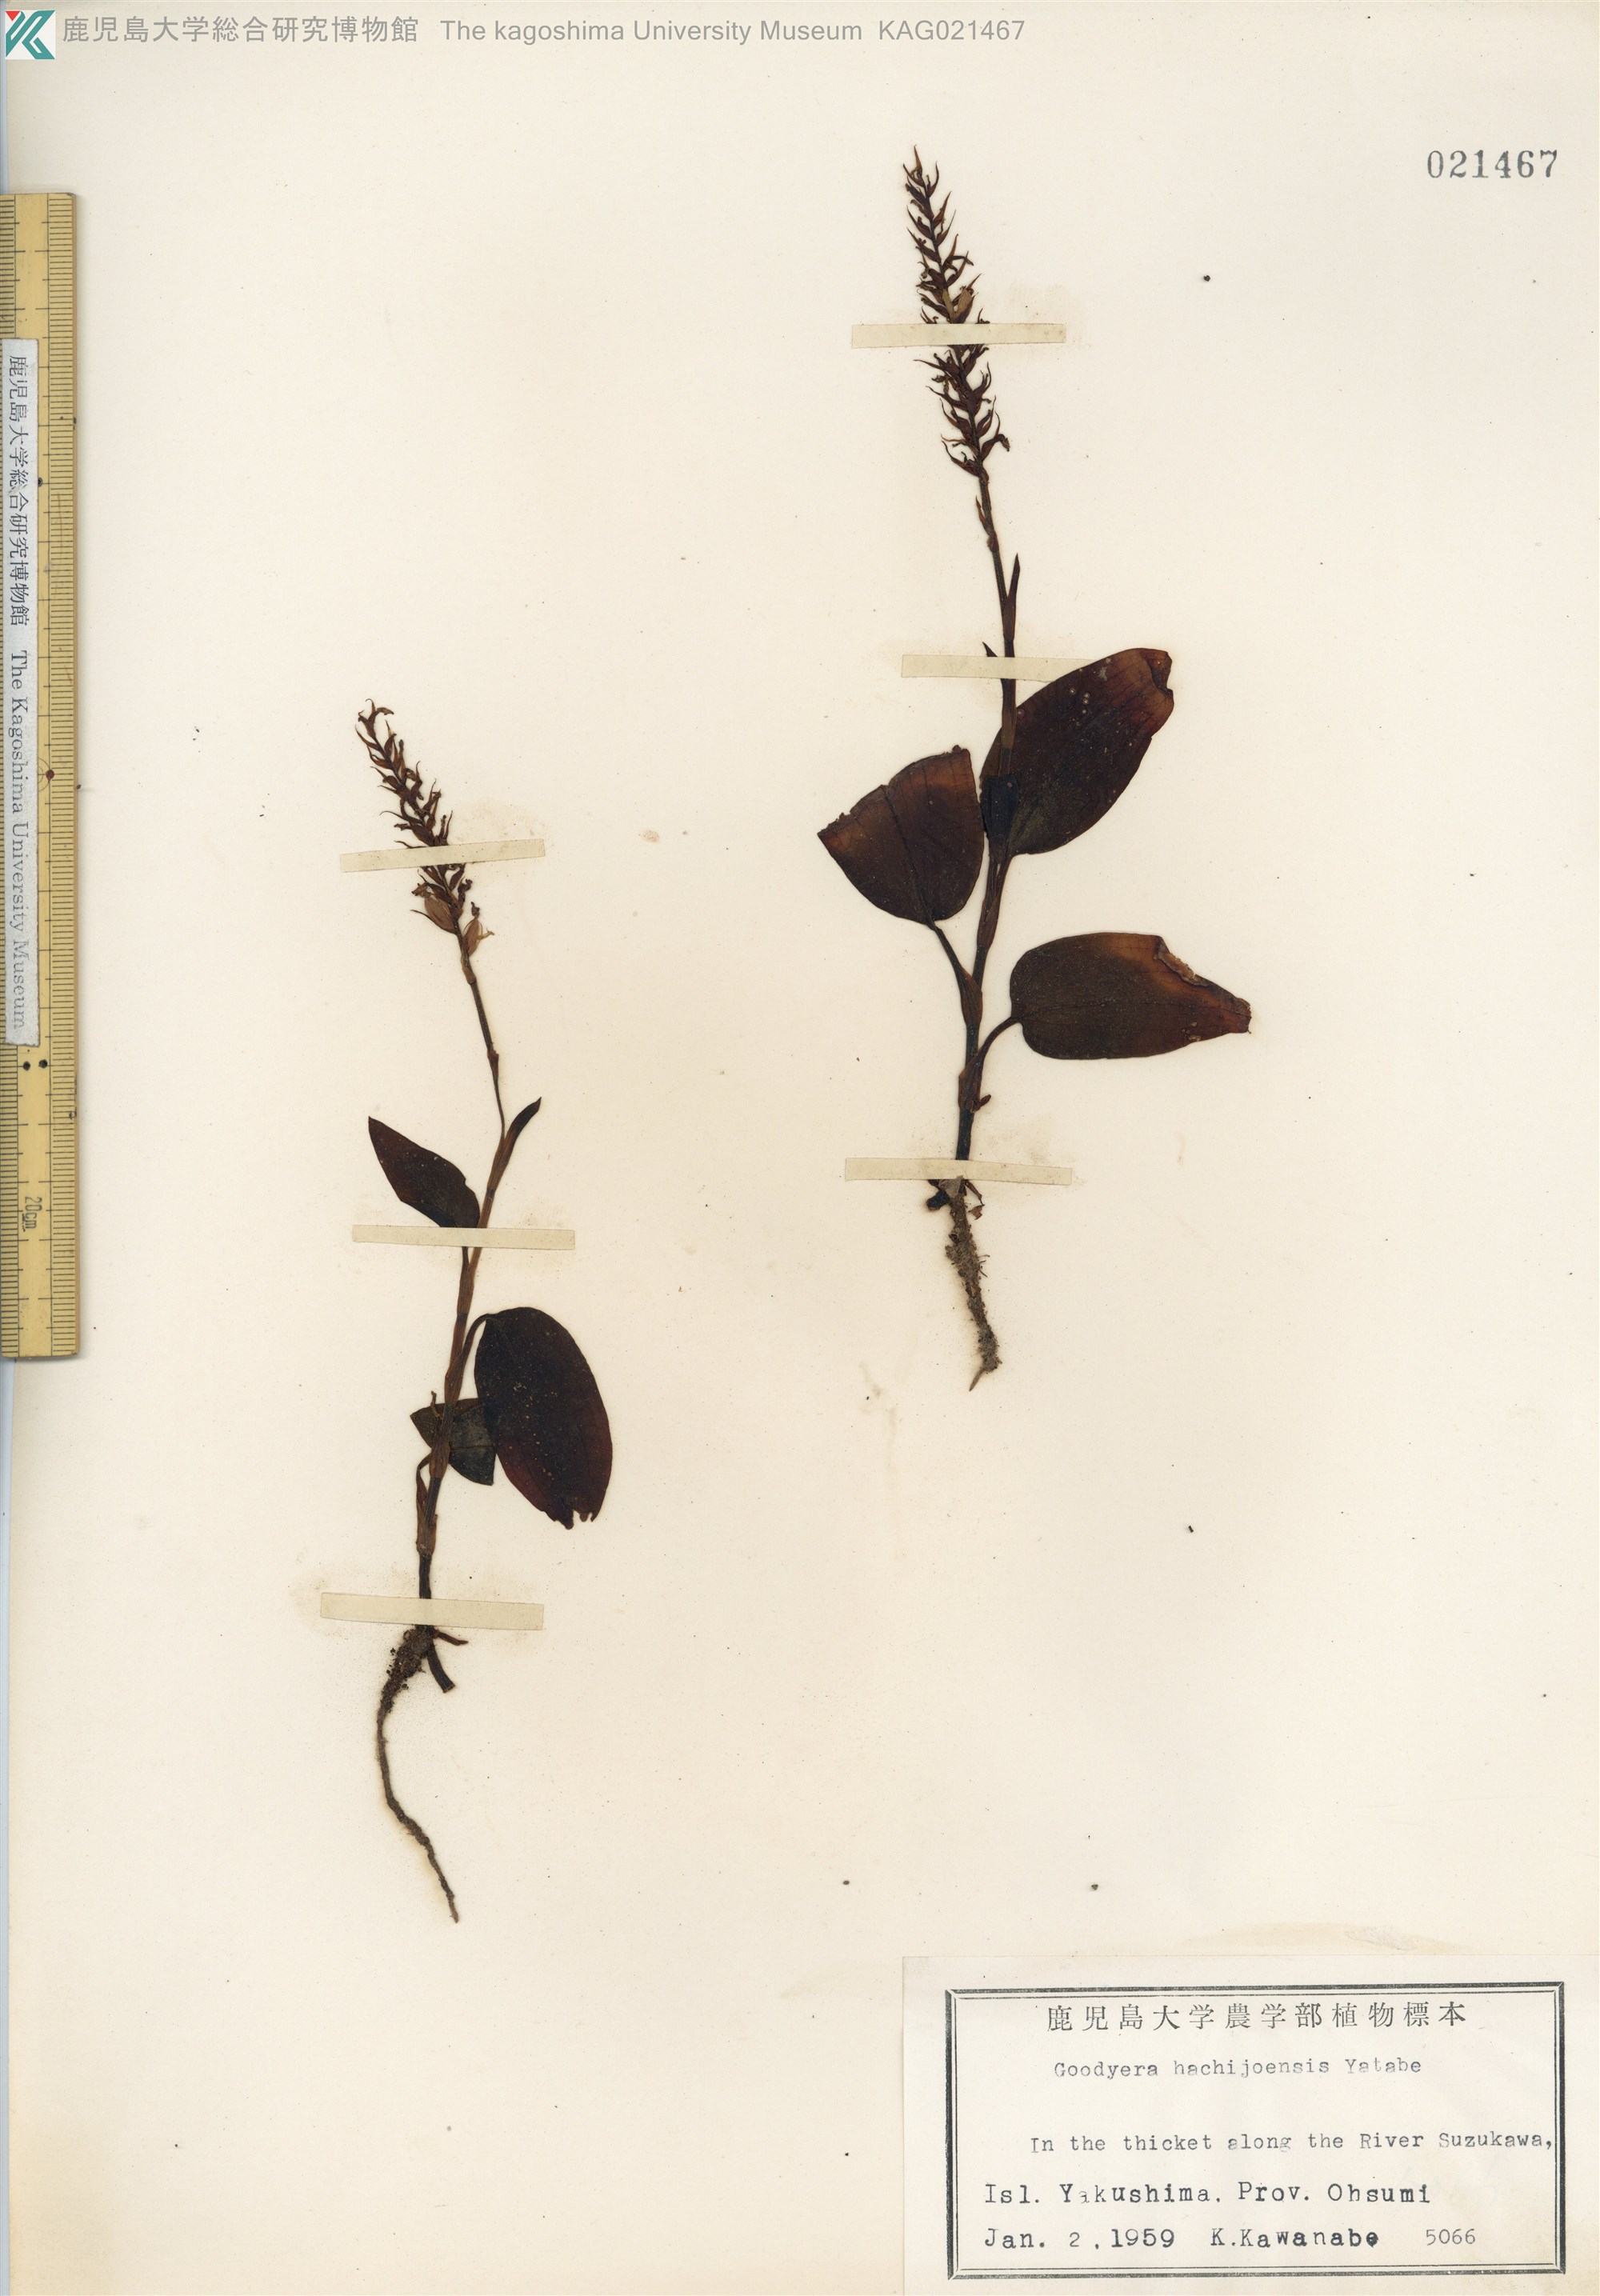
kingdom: Plantae
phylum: Tracheophyta
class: Liliopsida
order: Asparagales
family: Orchidaceae
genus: Goodyera
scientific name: Goodyera hachijoensis
